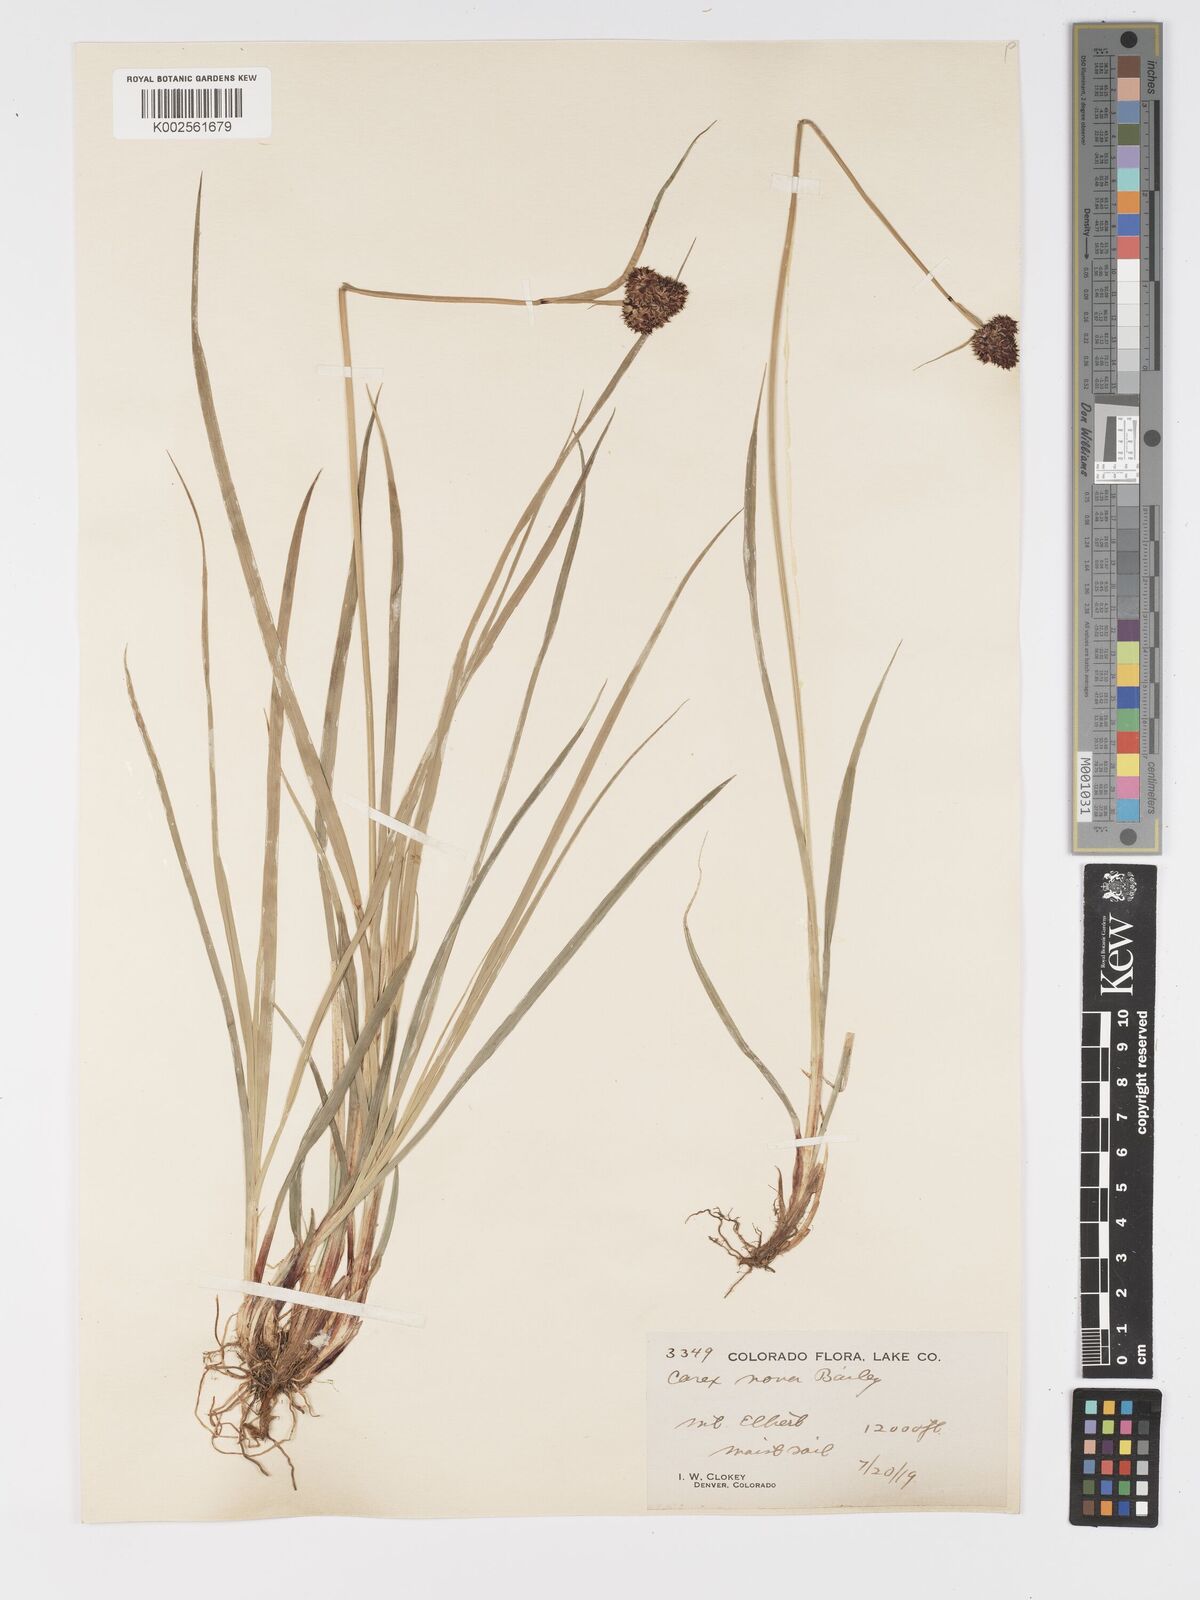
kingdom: Plantae
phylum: Tracheophyta
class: Liliopsida
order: Poales
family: Cyperaceae
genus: Carex
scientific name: Carex nova
